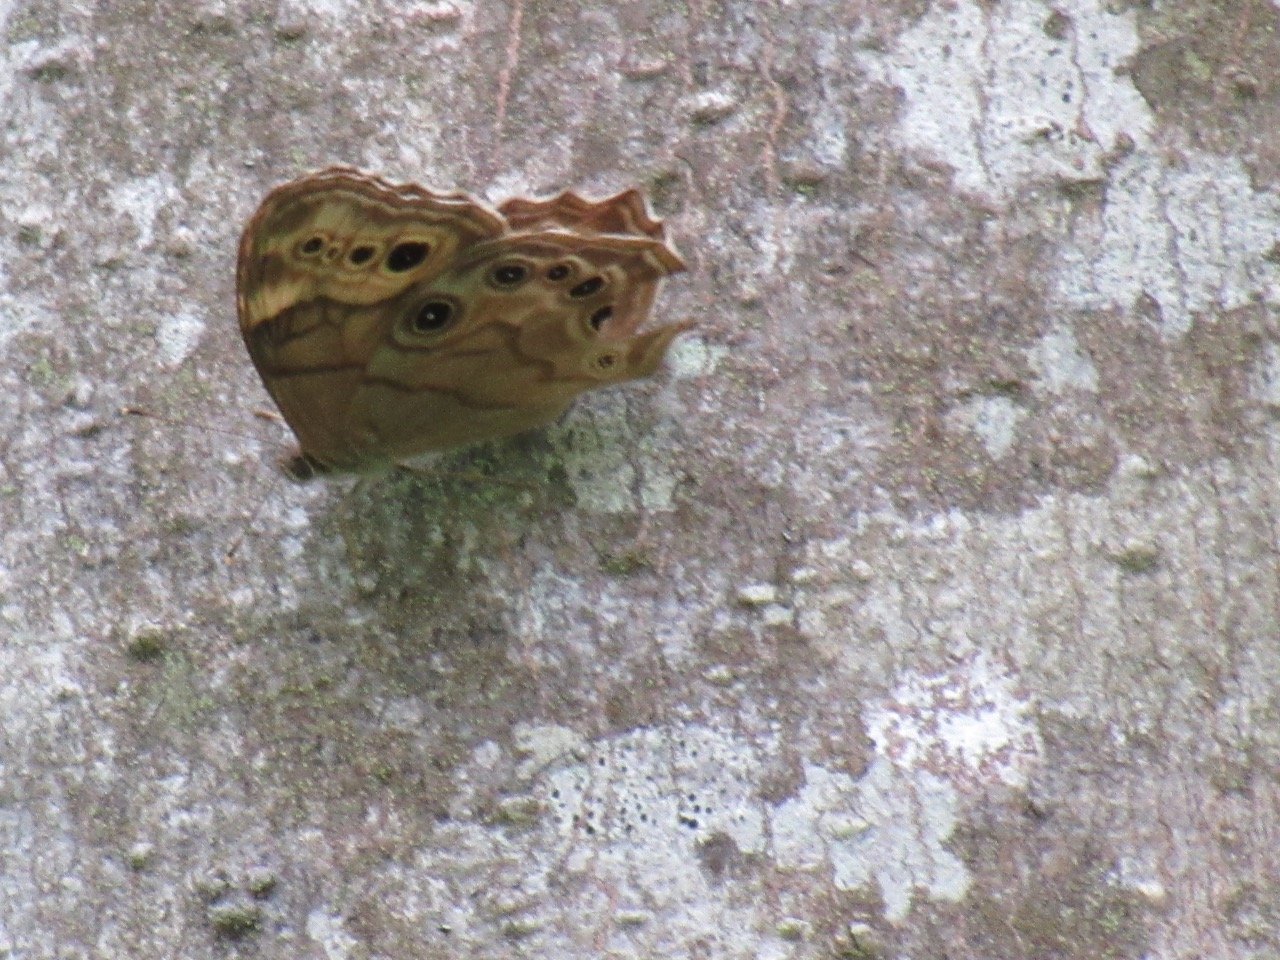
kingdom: Animalia
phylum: Arthropoda
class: Insecta
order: Lepidoptera
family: Nymphalidae
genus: Lethe
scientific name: Lethe anthedon
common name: Northern Pearly-Eye
